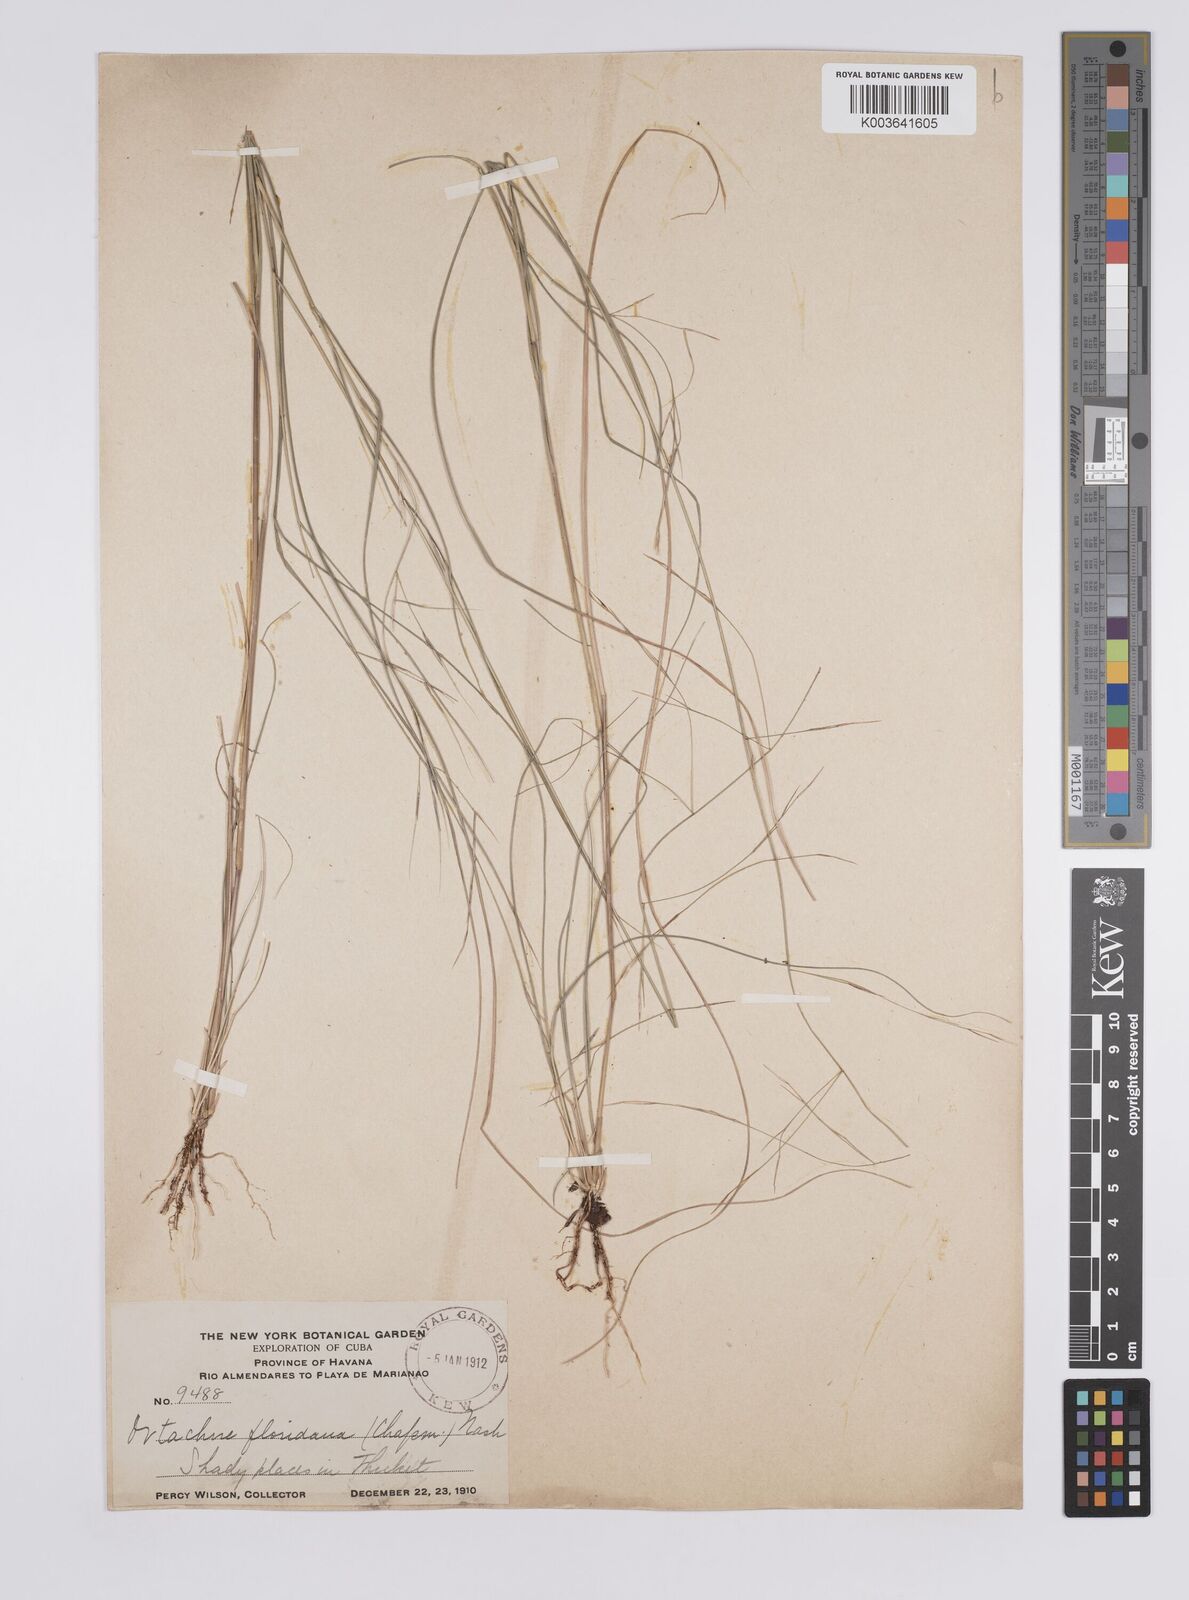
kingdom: Plantae
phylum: Tracheophyta
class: Liliopsida
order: Poales
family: Poaceae
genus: Aristida
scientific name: Aristida ternipes
